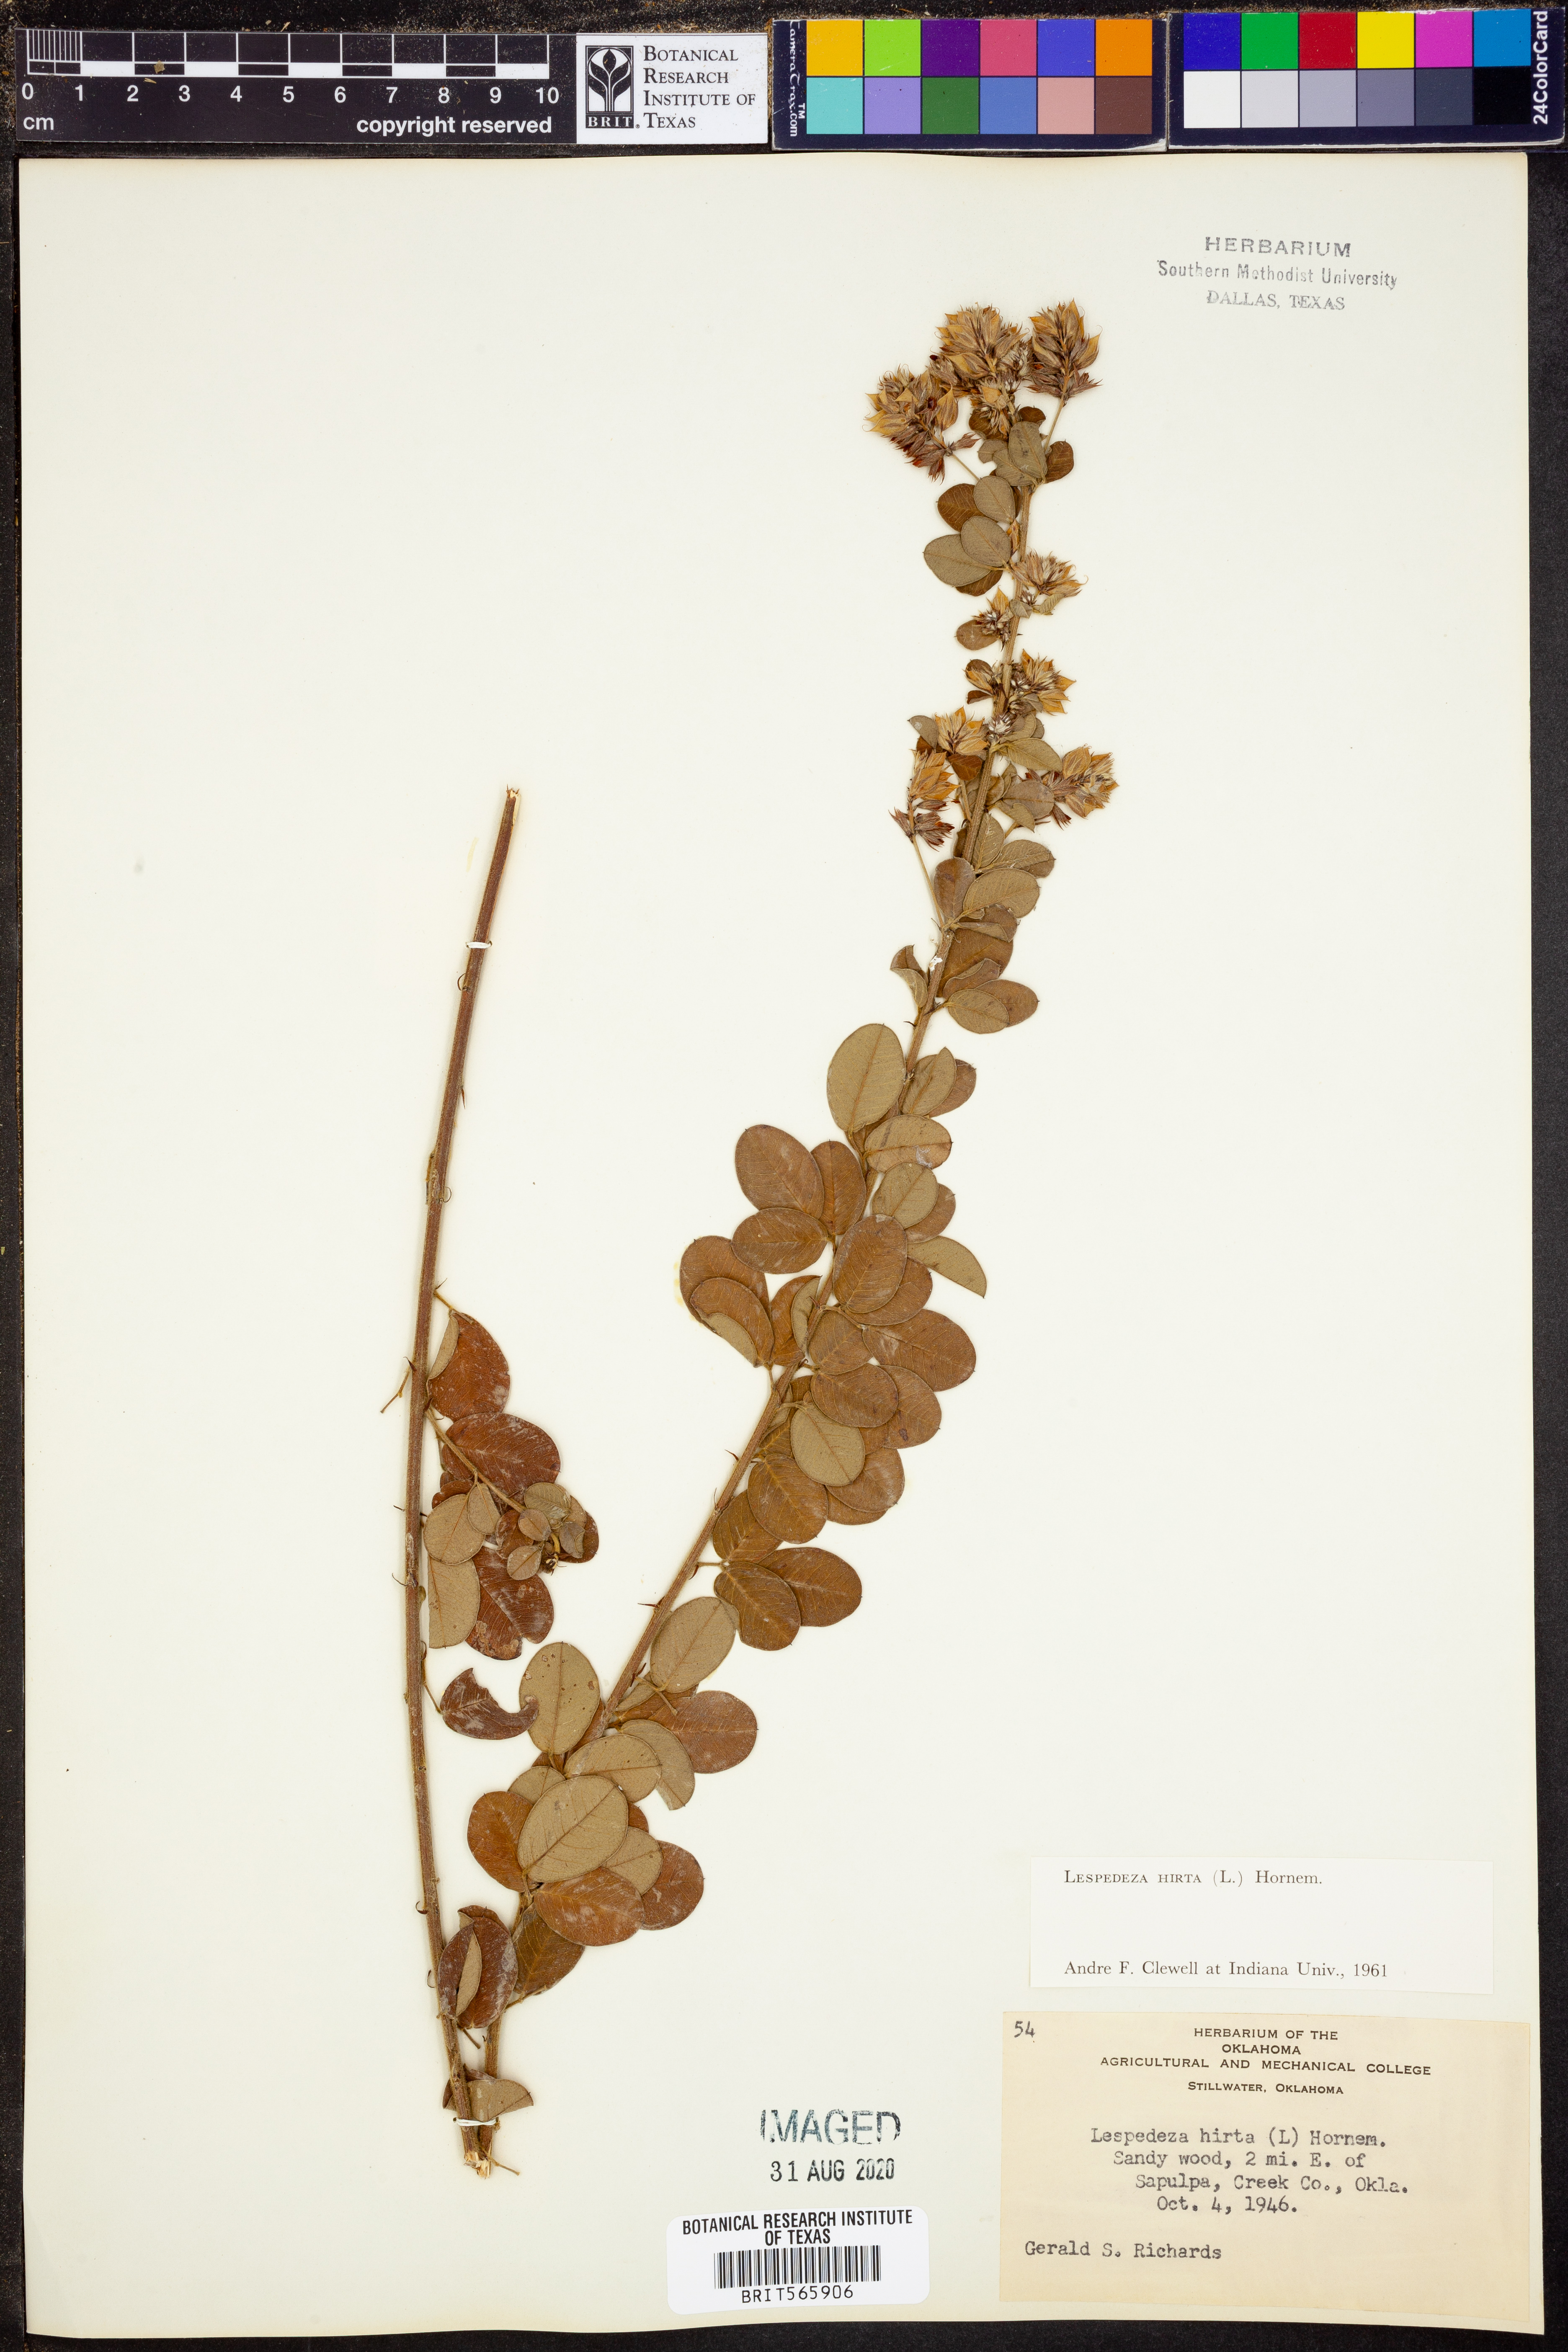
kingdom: Plantae
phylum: Tracheophyta
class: Magnoliopsida
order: Fabales
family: Fabaceae
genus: Lespedeza
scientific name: Lespedeza hirta
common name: Hairy lespedeza
